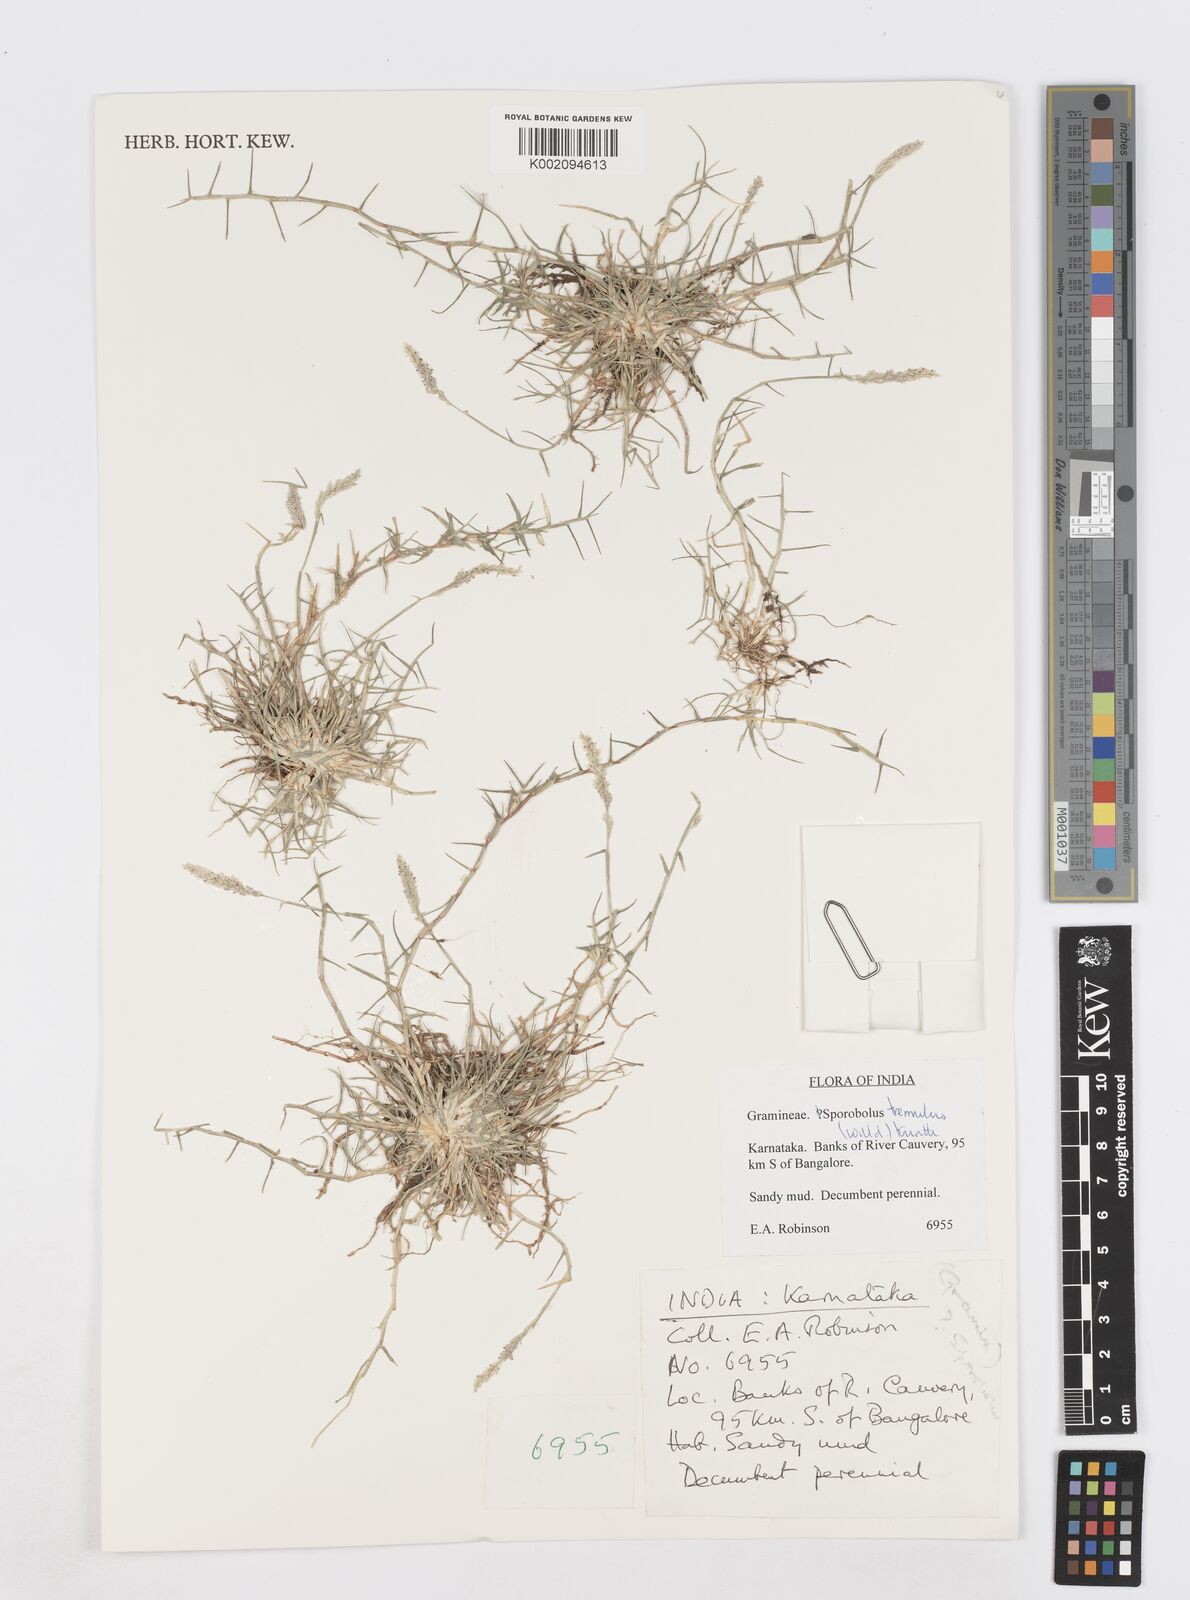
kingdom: Plantae
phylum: Tracheophyta
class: Liliopsida
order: Poales
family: Poaceae
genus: Sporobolus
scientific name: Sporobolus virginicus
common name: Beach dropseed
